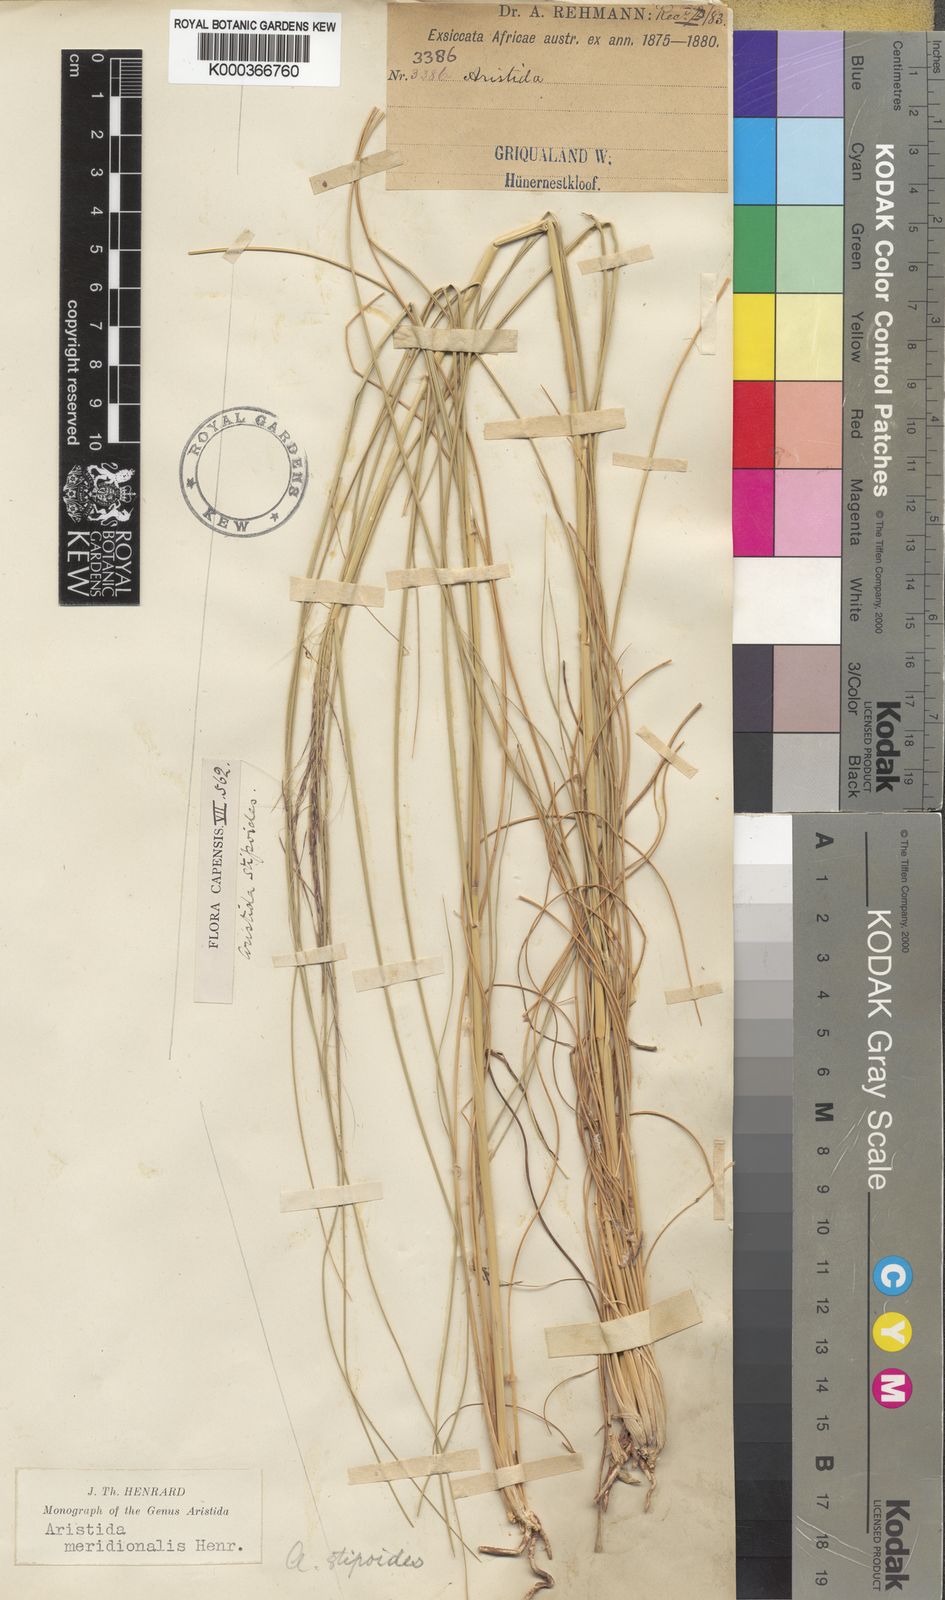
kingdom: Plantae
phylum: Tracheophyta
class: Liliopsida
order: Poales
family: Poaceae
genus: Aristida
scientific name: Aristida meridionalis
